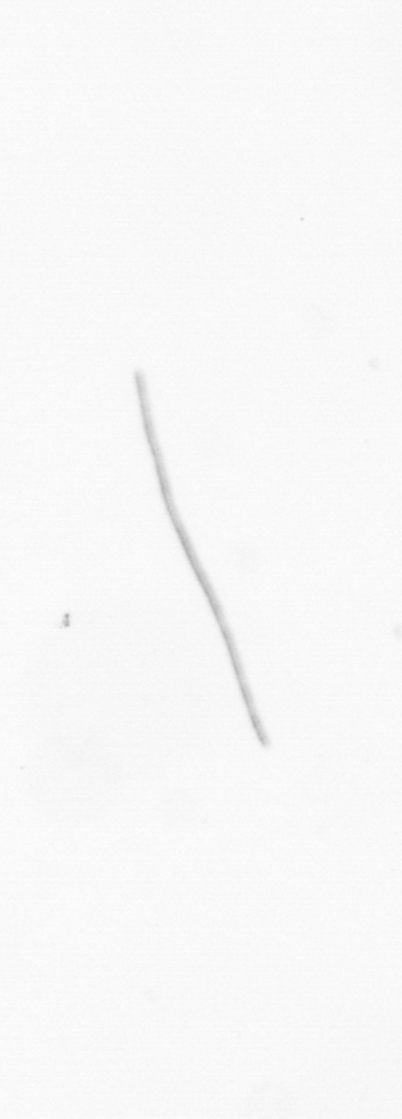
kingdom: Chromista
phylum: Ochrophyta
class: Bacillariophyceae
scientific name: Bacillariophyceae
